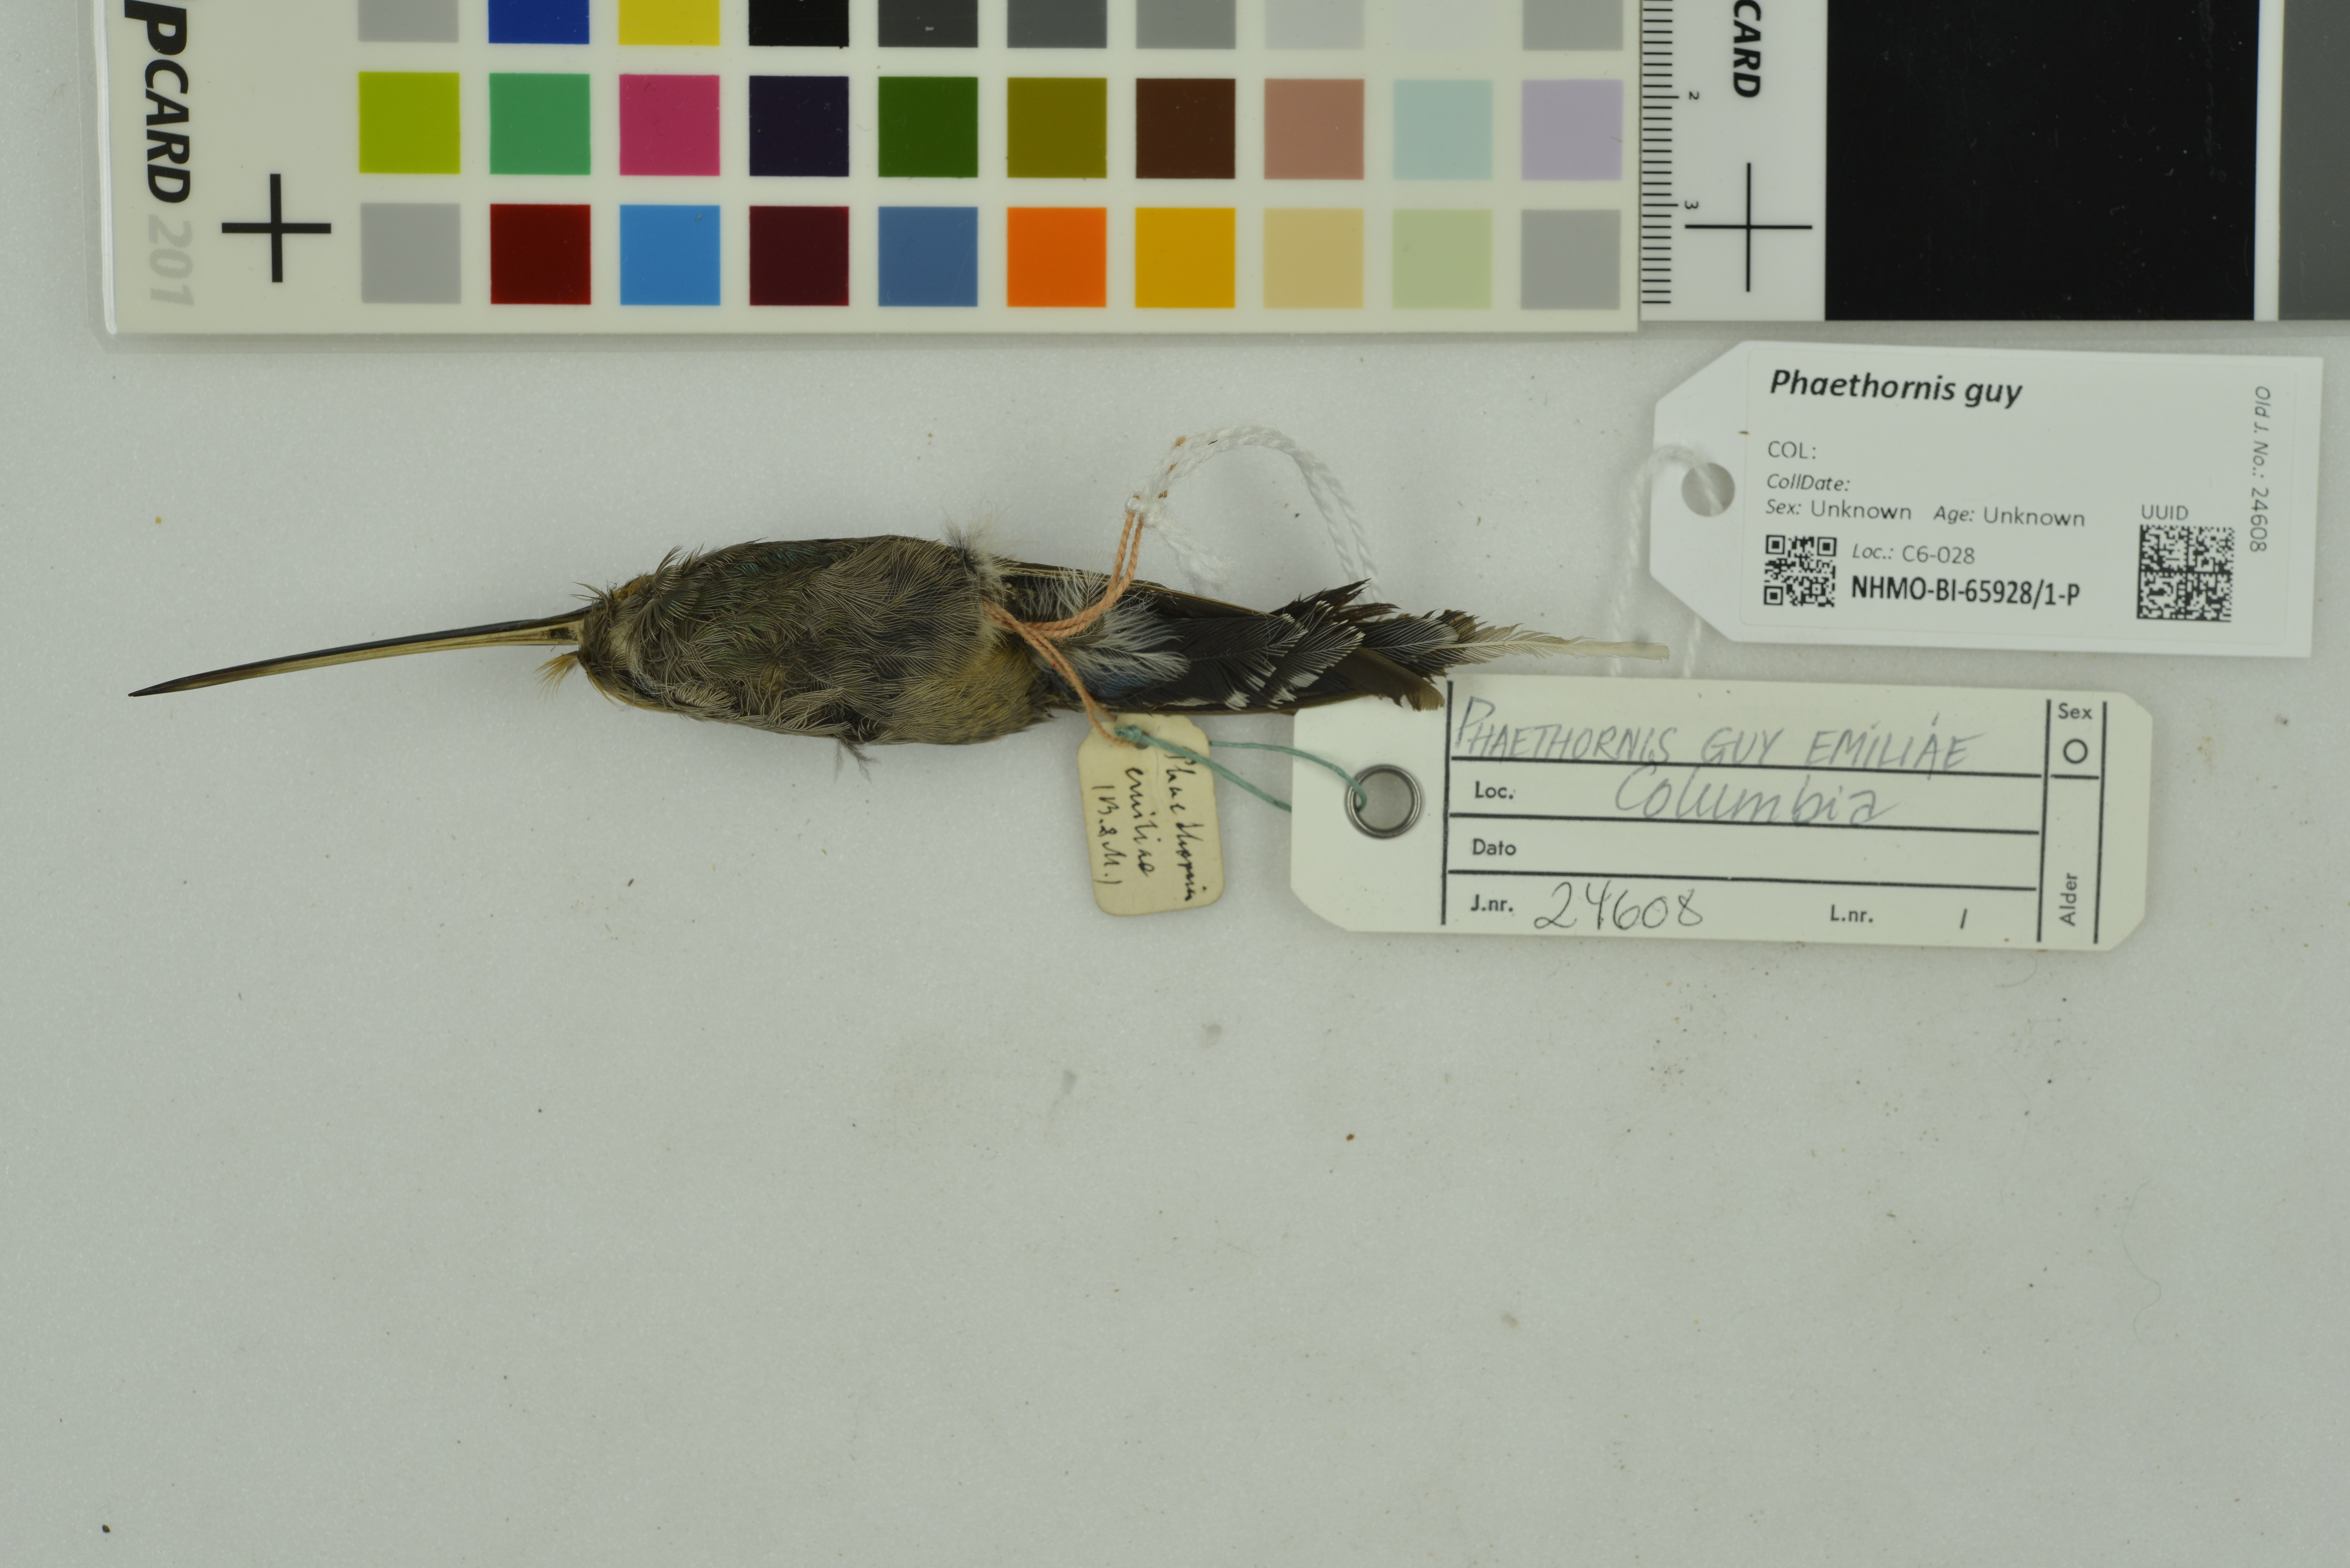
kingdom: Animalia
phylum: Chordata
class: Aves
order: Apodiformes
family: Trochilidae
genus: Phaethornis
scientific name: Phaethornis guy
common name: Green hermit
